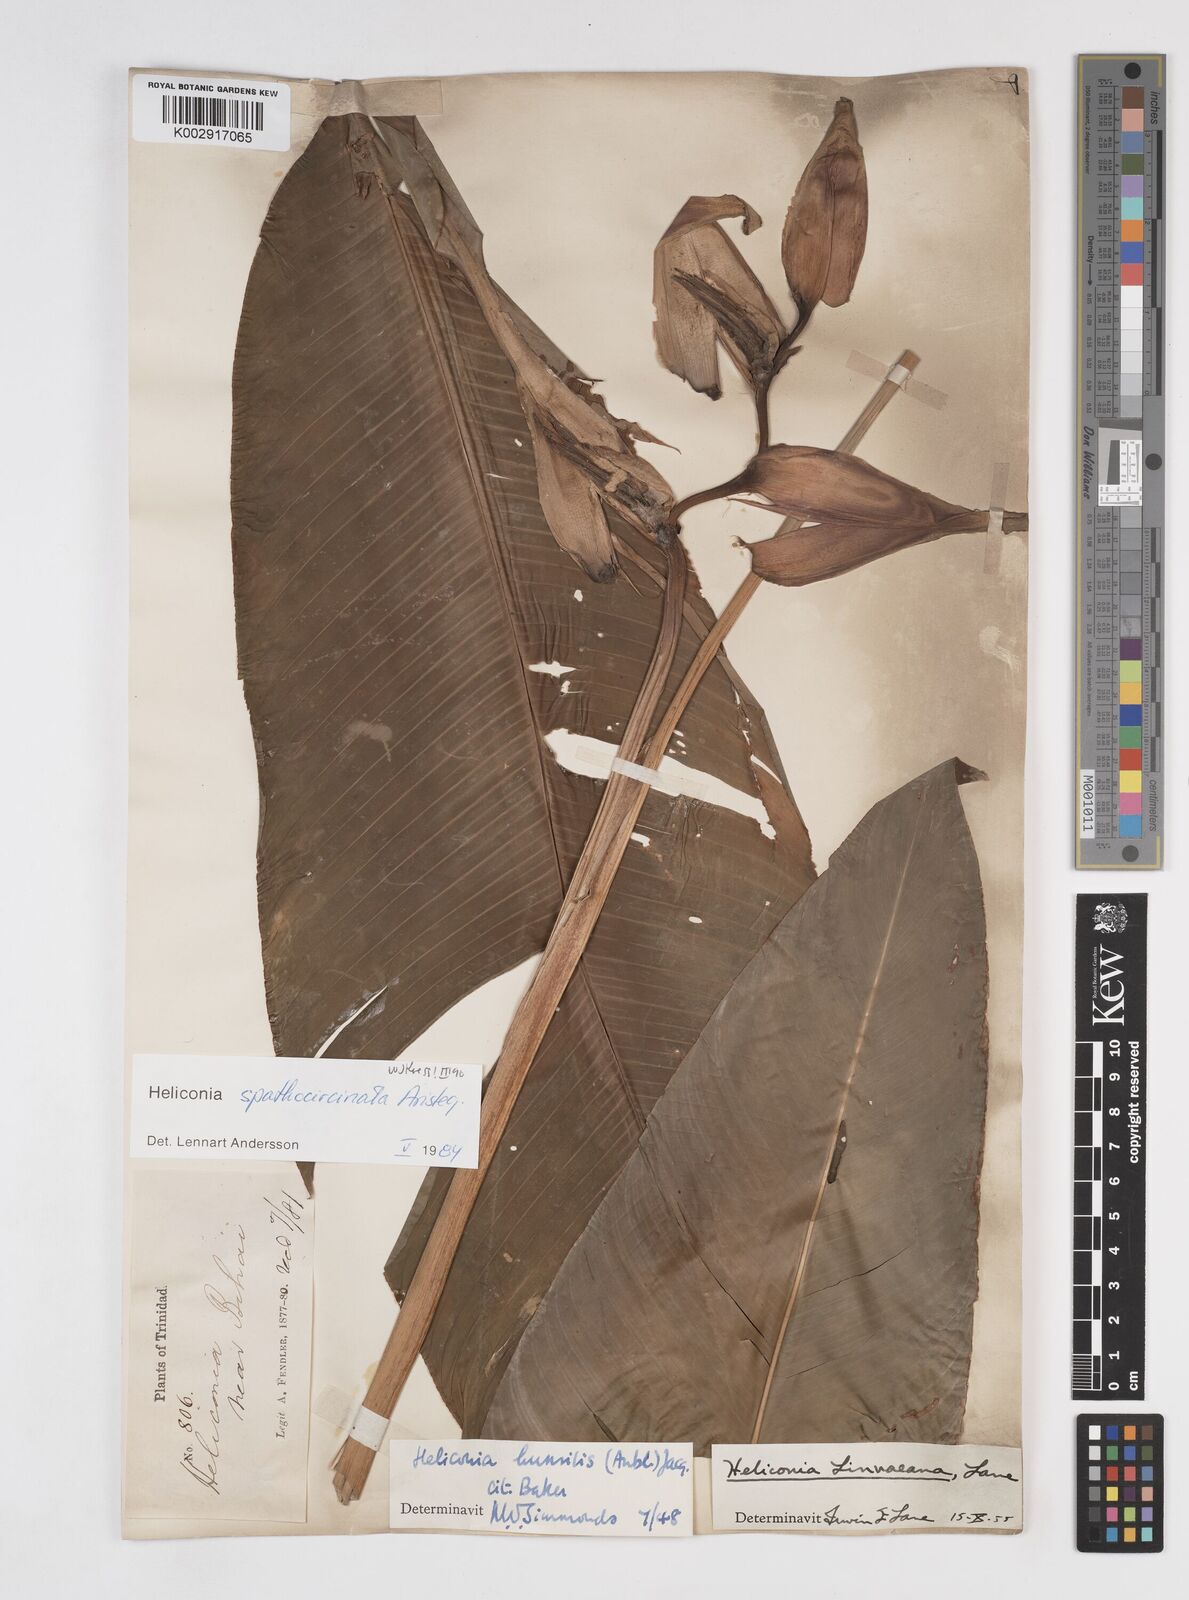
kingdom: Plantae
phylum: Tracheophyta
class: Liliopsida
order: Zingiberales
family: Heliconiaceae
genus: Heliconia
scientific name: Heliconia spathocircinata
